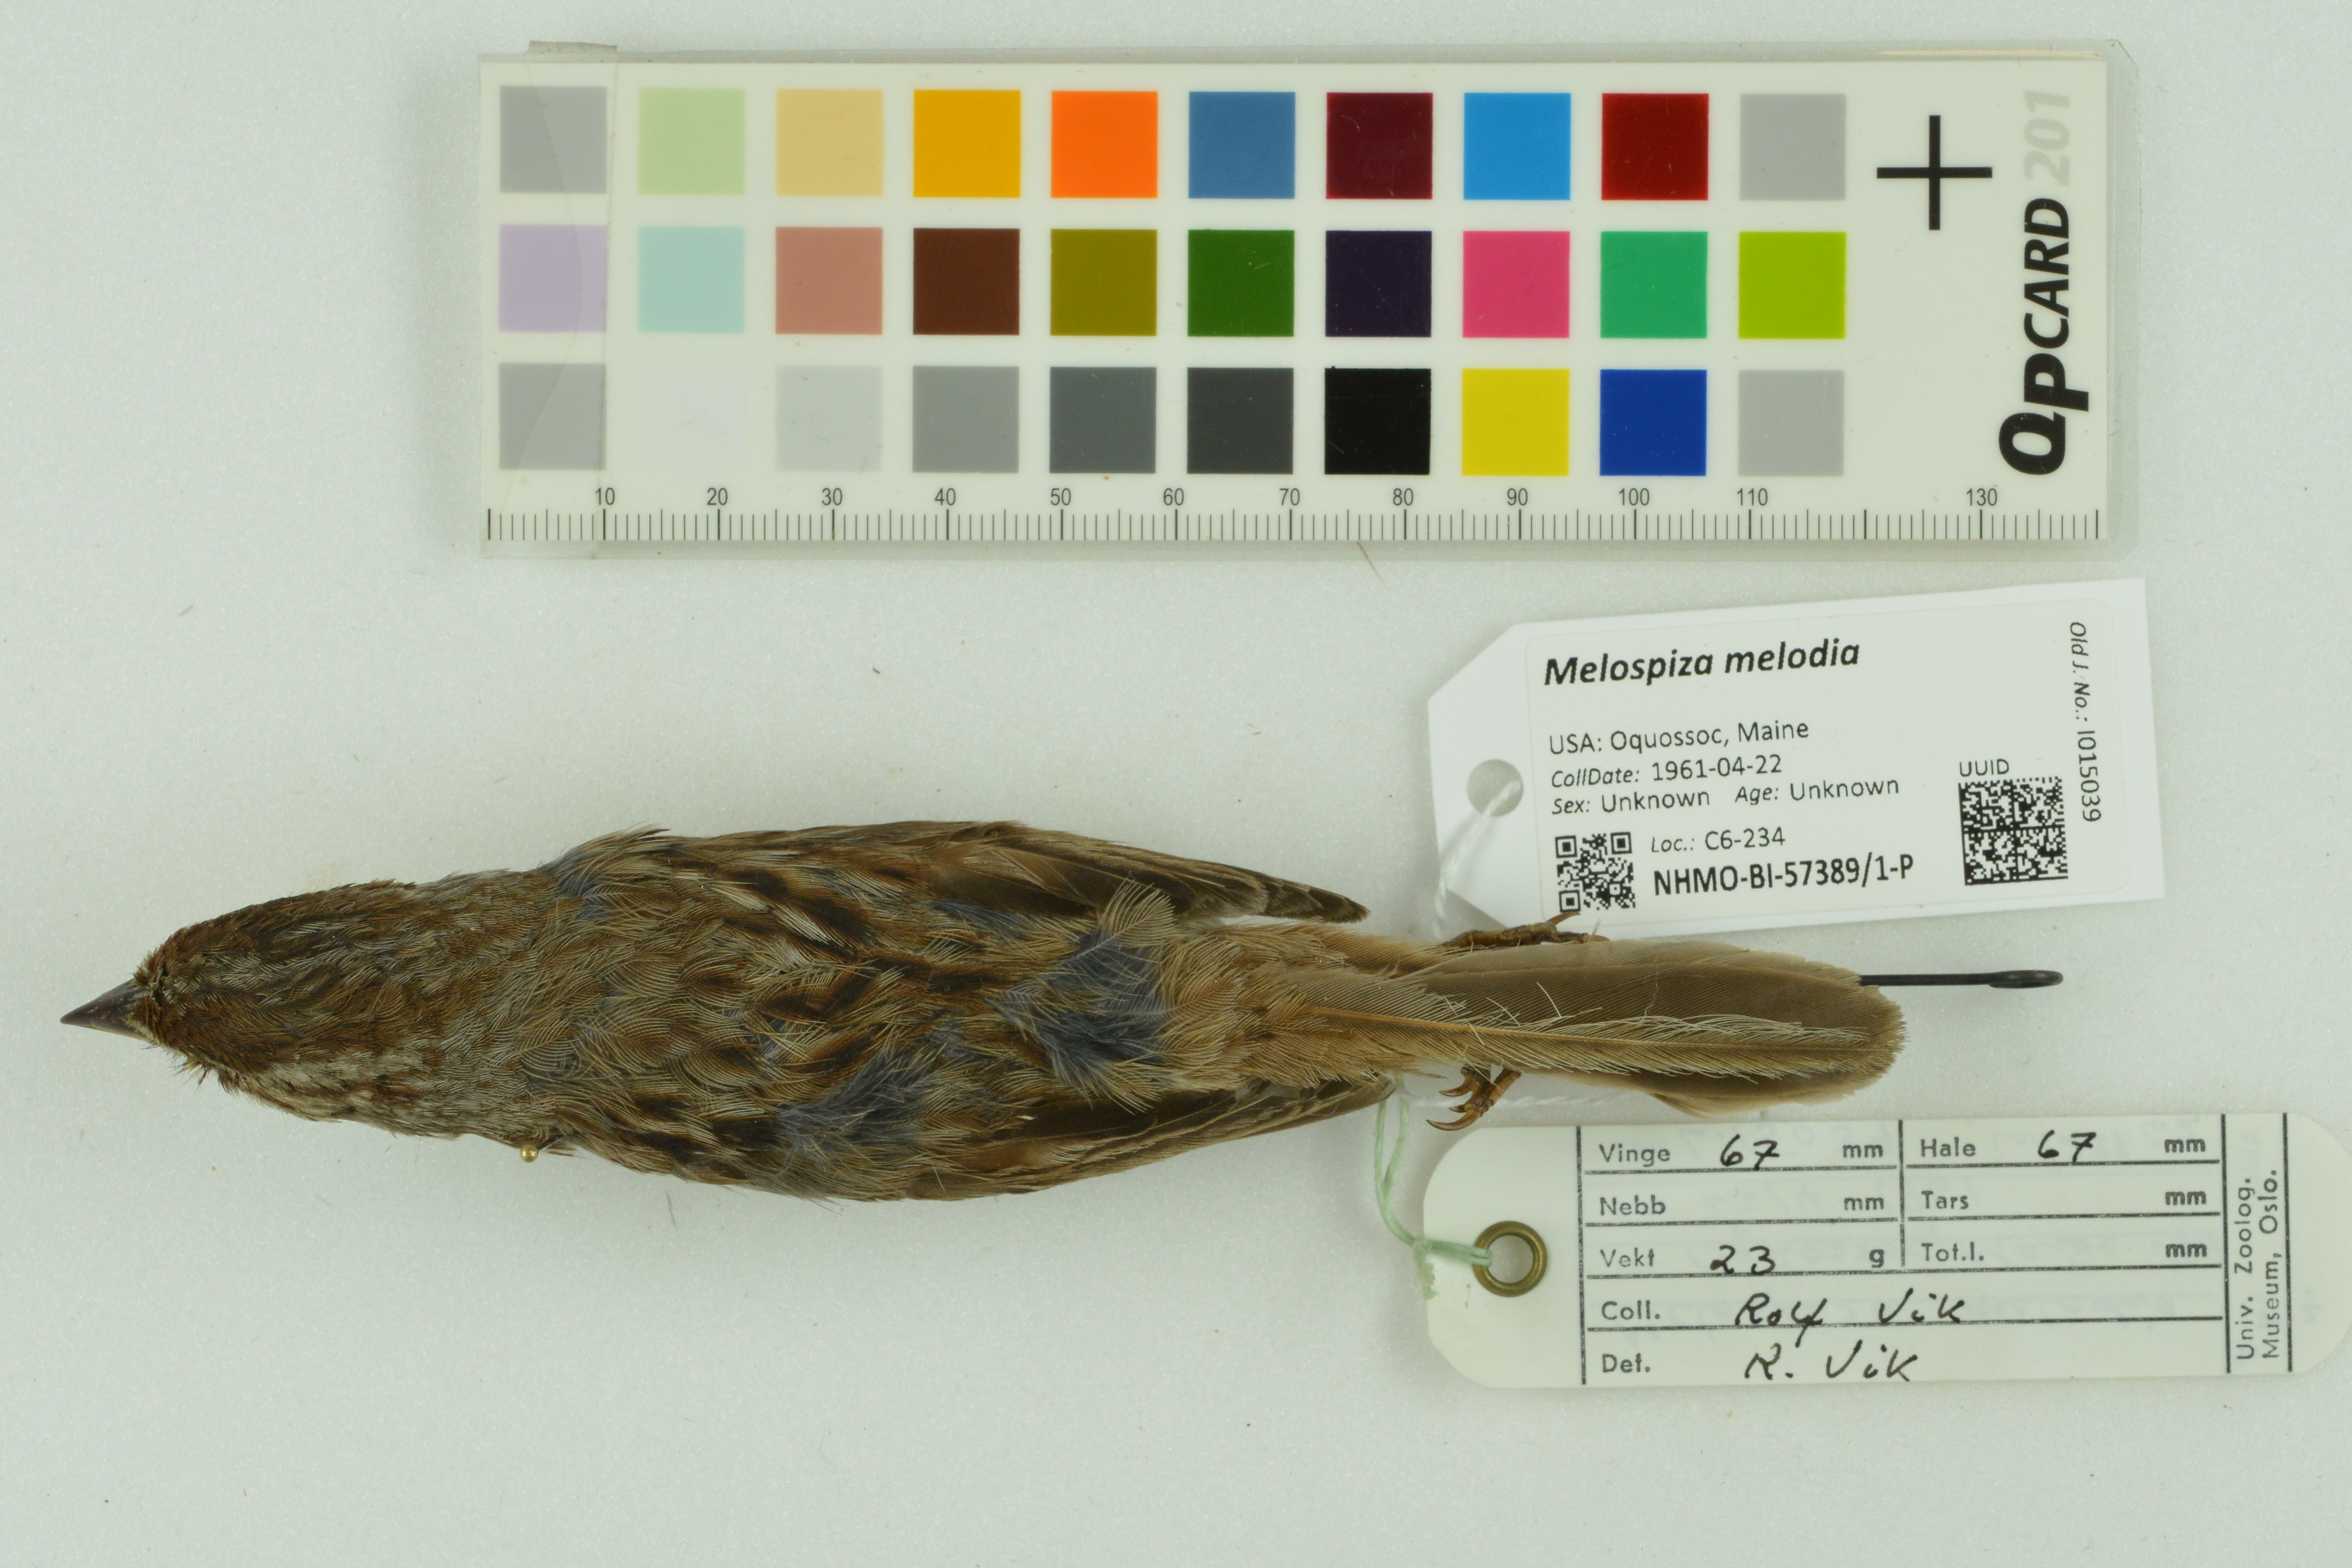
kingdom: Animalia
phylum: Chordata
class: Aves
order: Passeriformes
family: Passerellidae
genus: Melospiza
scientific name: Melospiza melodia
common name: Song sparrow
